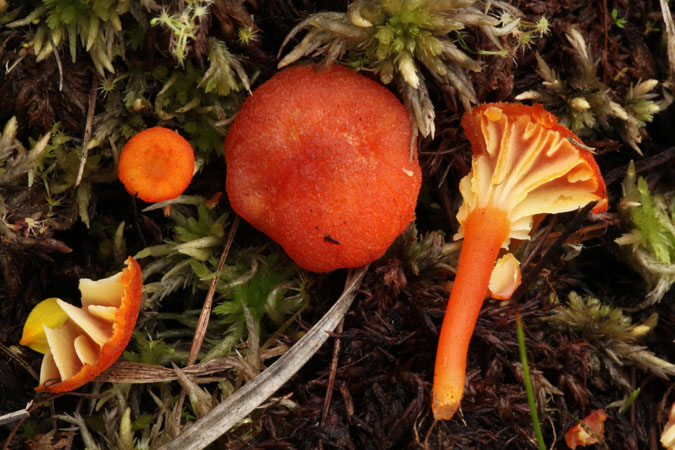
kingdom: Fungi
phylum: Basidiomycota
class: Agaricomycetes
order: Agaricales
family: Hygrophoraceae
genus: Hygrocybe
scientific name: Hygrocybe coccineocrenata
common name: tørvemos-vokshat
